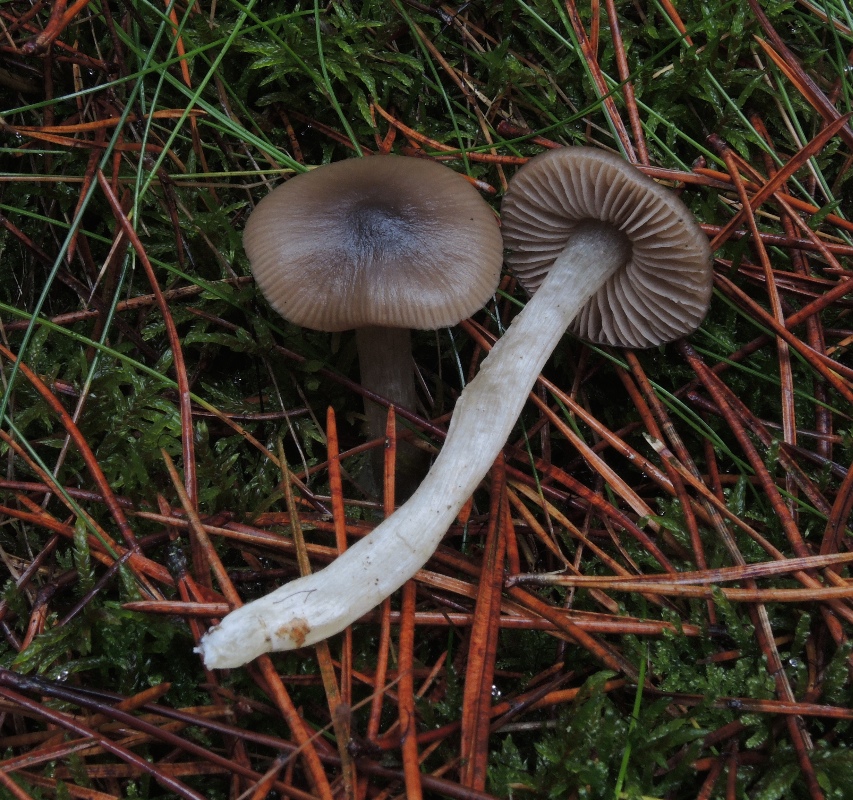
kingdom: Fungi
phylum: Basidiomycota
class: Agaricomycetes
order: Agaricales
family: Entolomataceae
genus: Entocybe
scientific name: Entocybe turbida
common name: plantage-rødblad
